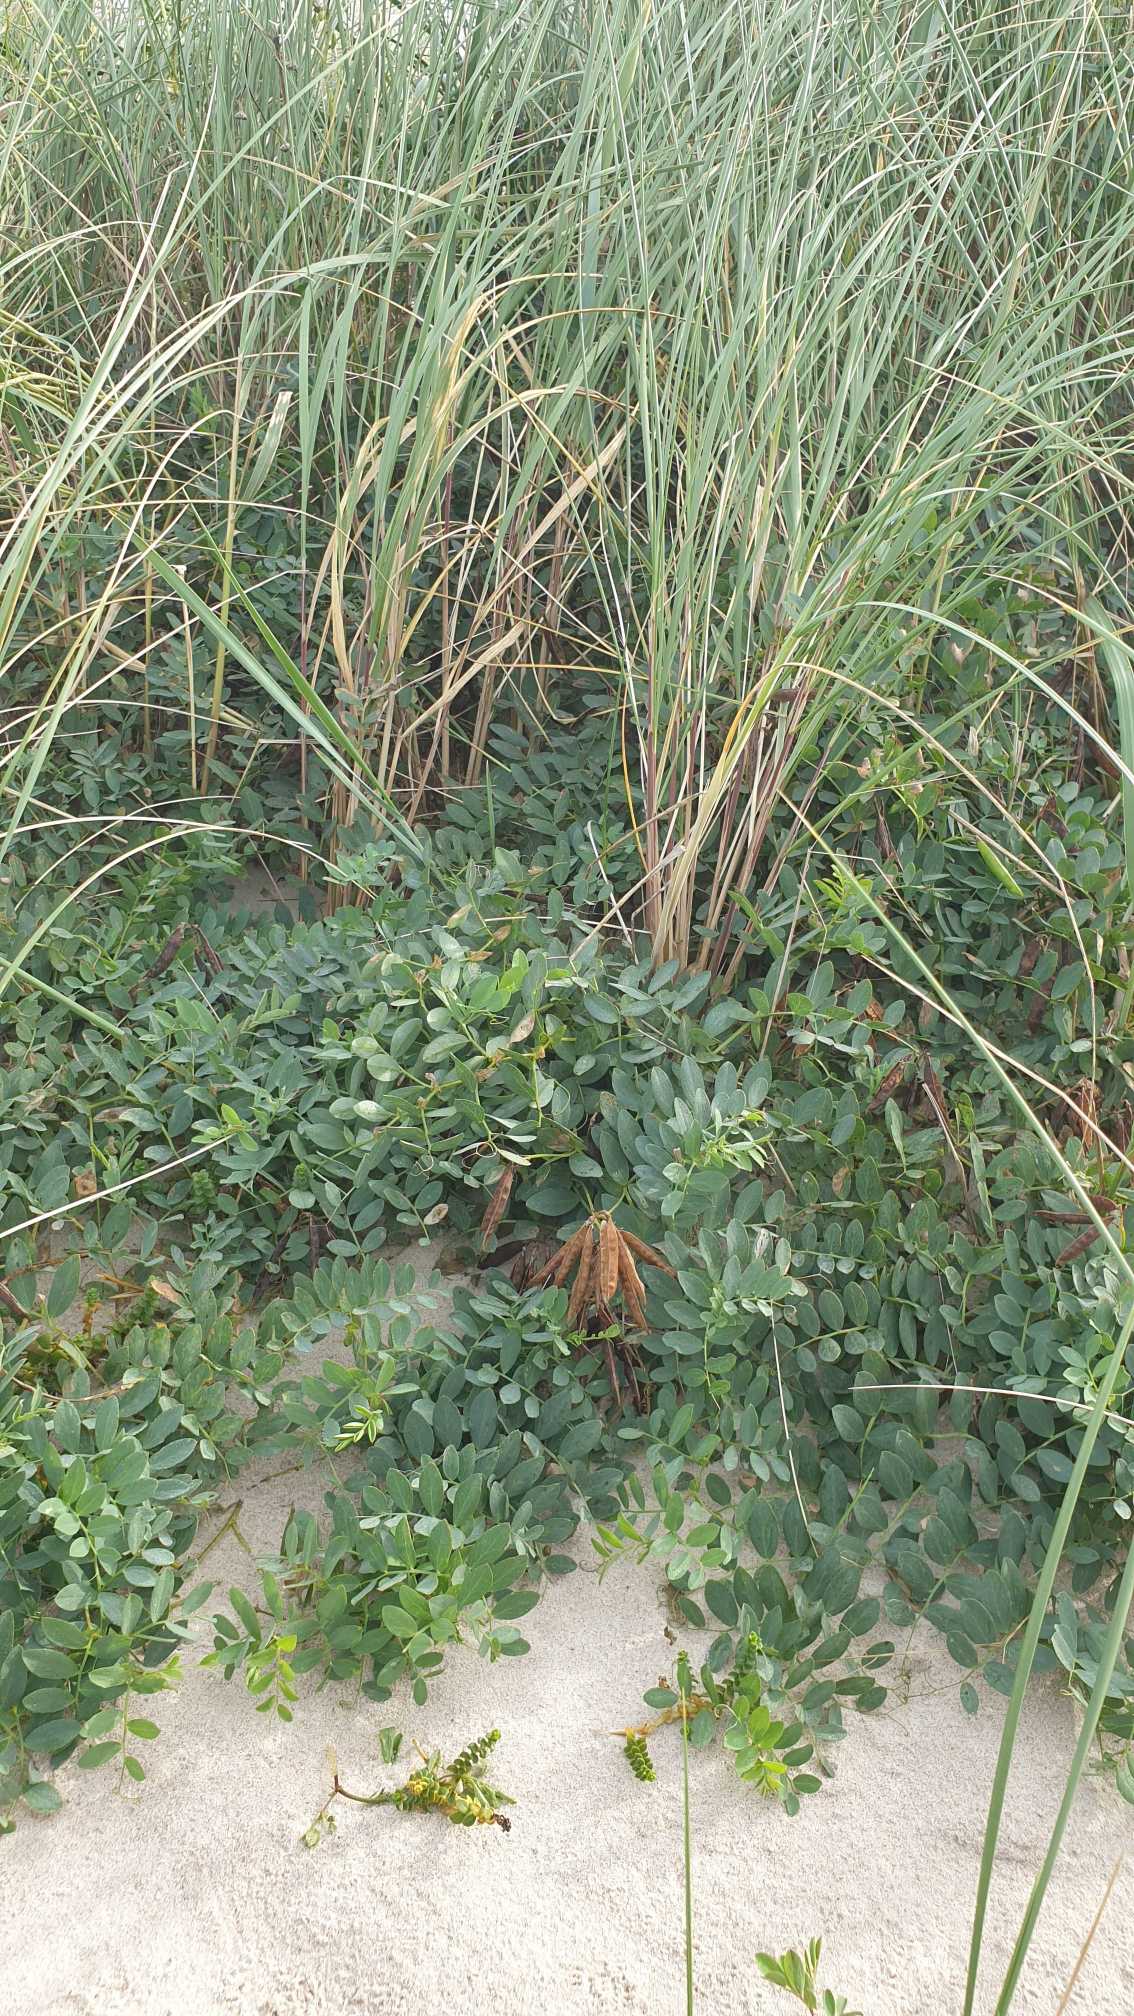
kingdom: Plantae
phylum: Tracheophyta
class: Magnoliopsida
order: Fabales
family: Fabaceae
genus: Lathyrus
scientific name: Lathyrus japonicus
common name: Strand-fladbælg
